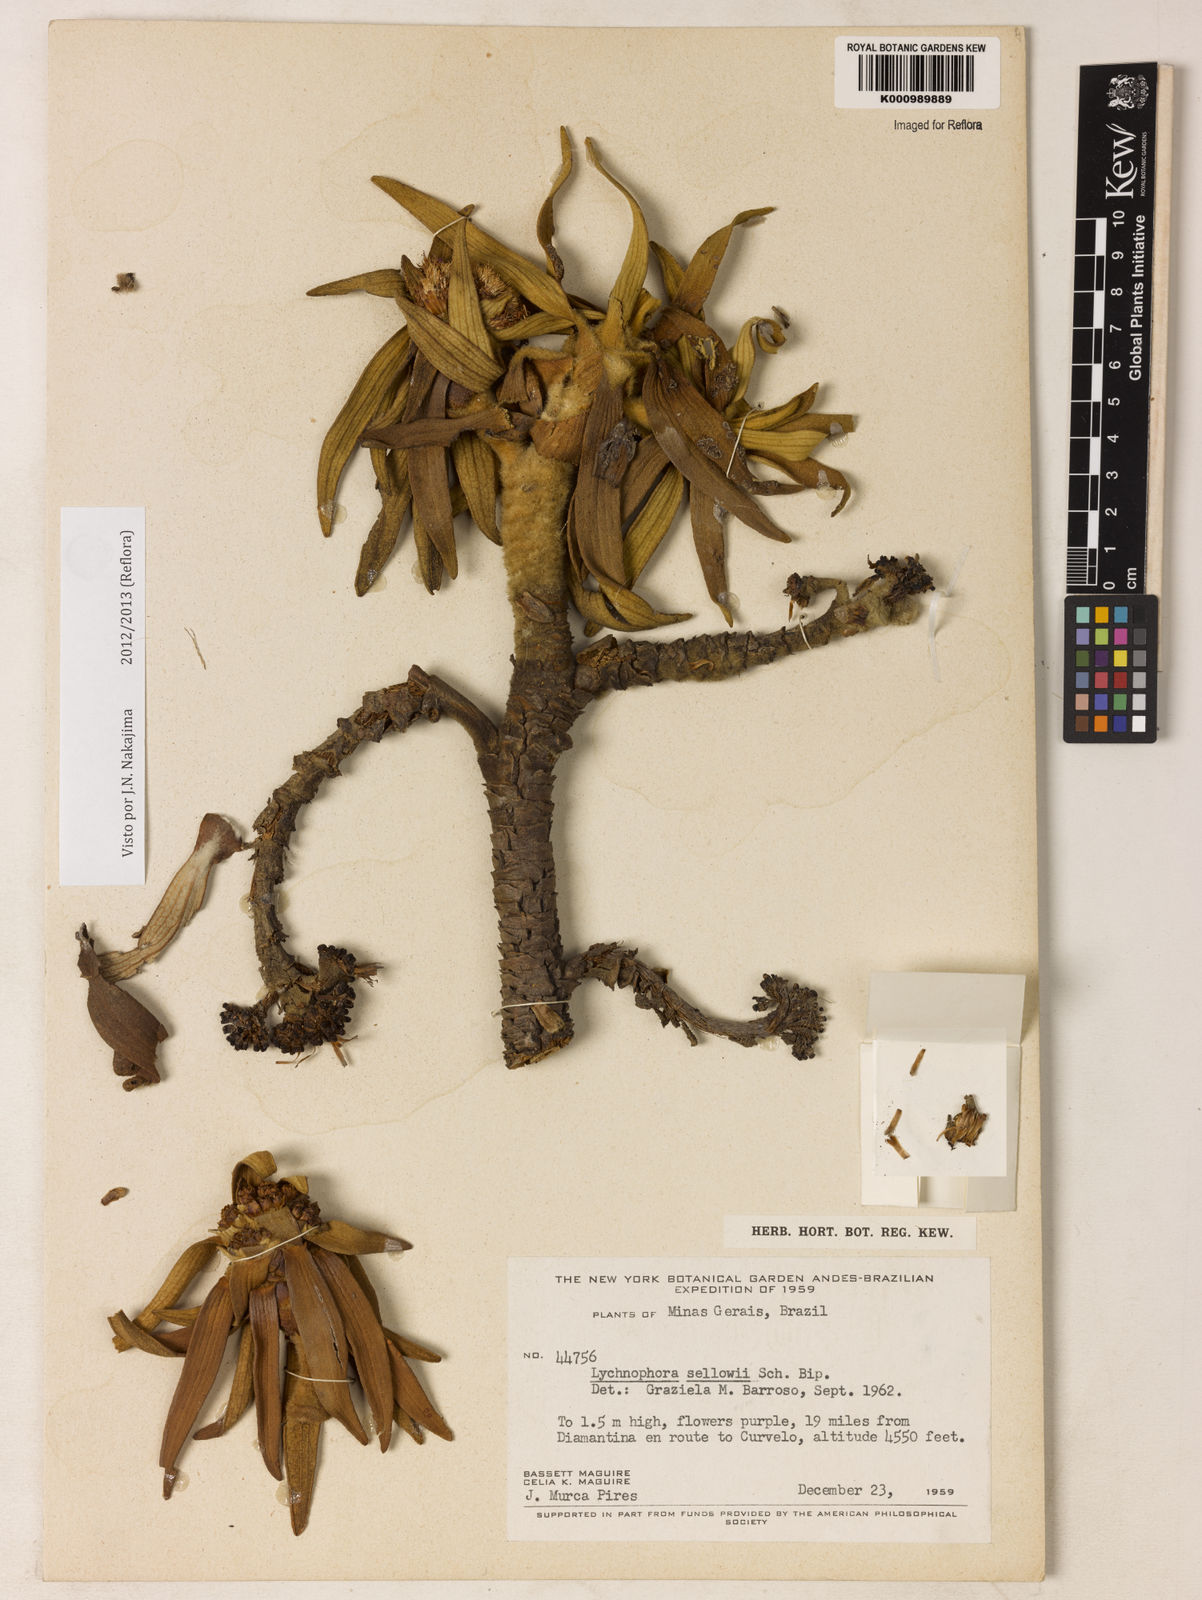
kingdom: Plantae
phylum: Tracheophyta
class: Magnoliopsida
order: Asterales
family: Asteraceae
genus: Lychnophora
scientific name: Lychnophora
